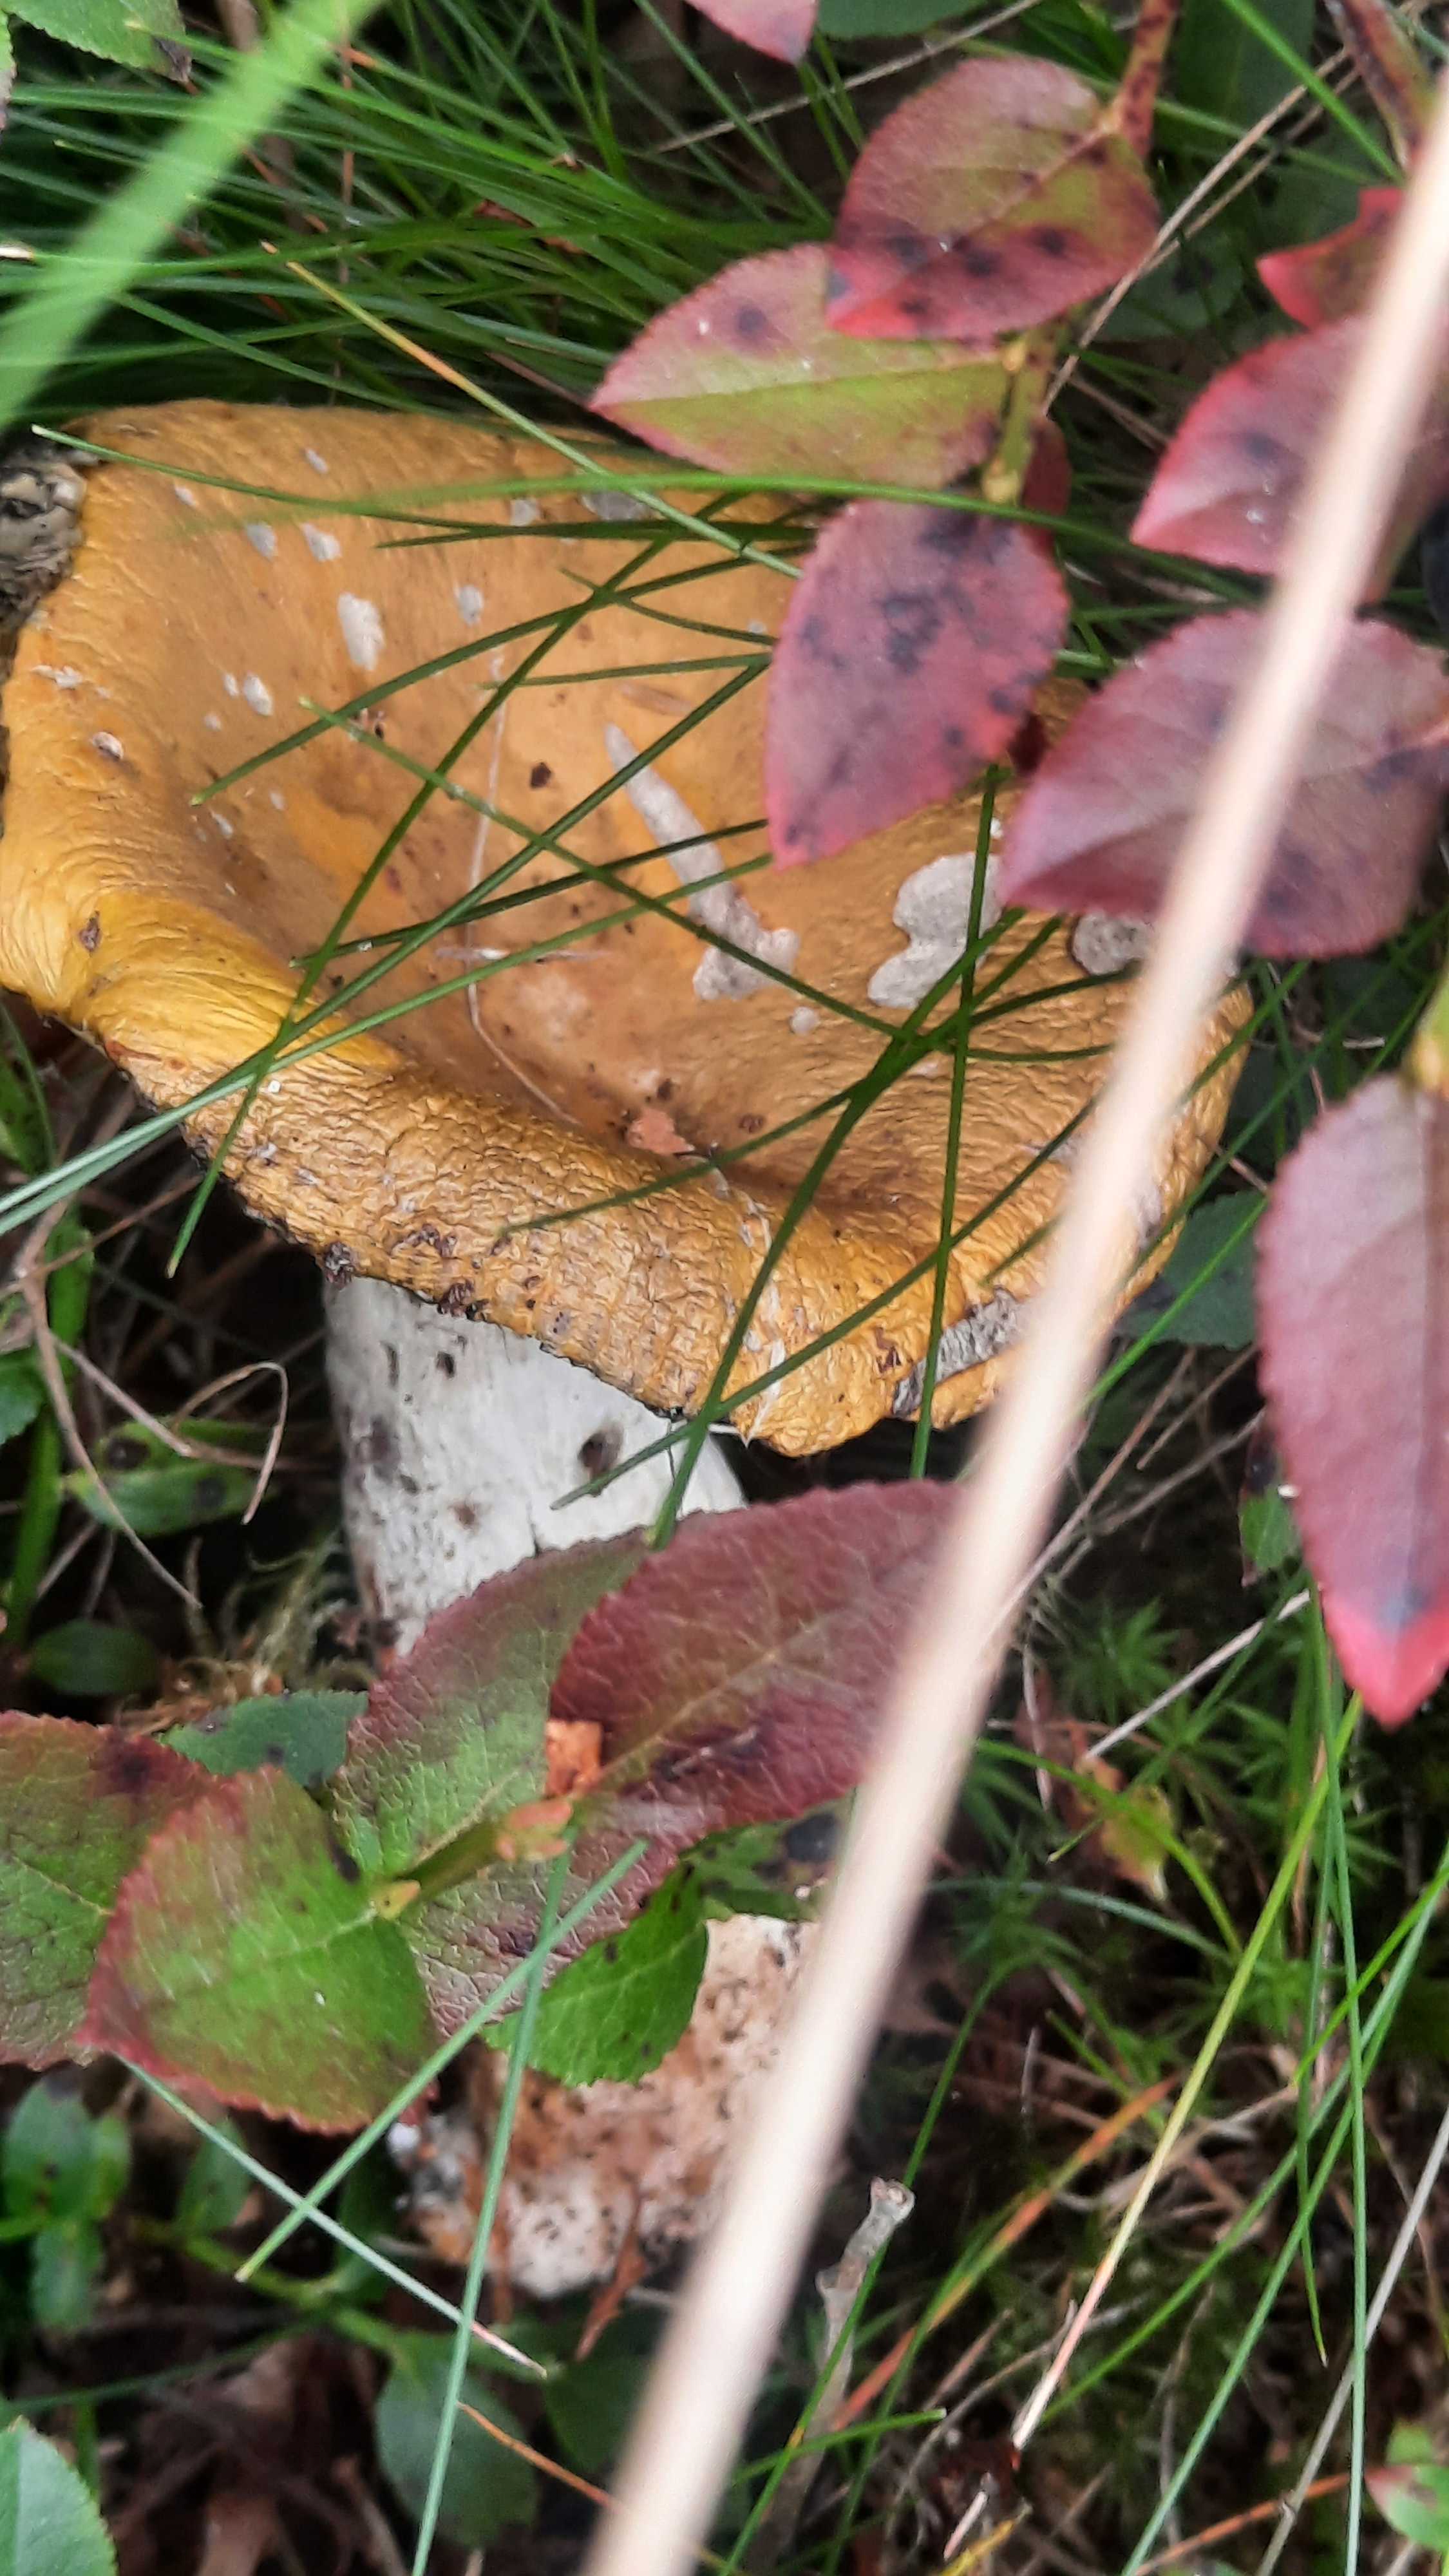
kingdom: Fungi
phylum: Basidiomycota
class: Agaricomycetes
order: Russulales
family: Russulaceae
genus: Russula
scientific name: Russula claroflava
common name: birke-skørhat
